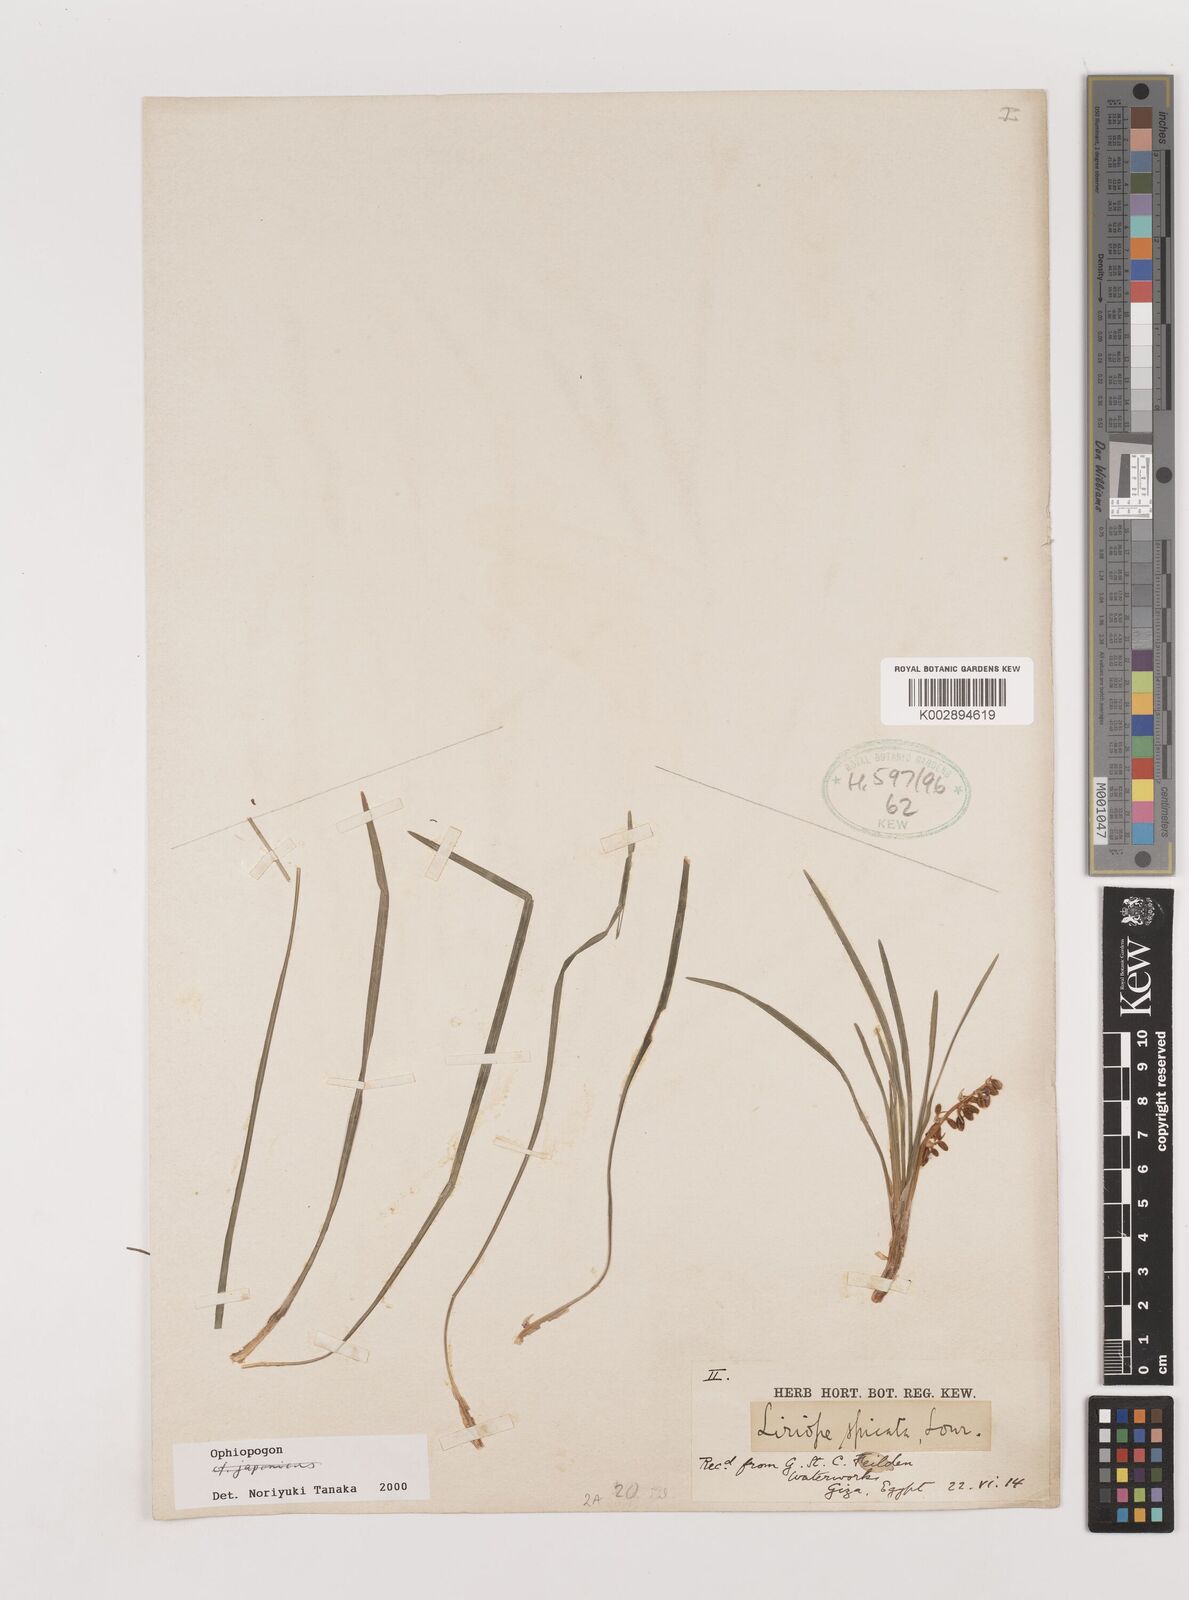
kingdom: Plantae
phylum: Tracheophyta
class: Liliopsida
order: Asparagales
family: Asparagaceae
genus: Ophiopogon
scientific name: Ophiopogon
